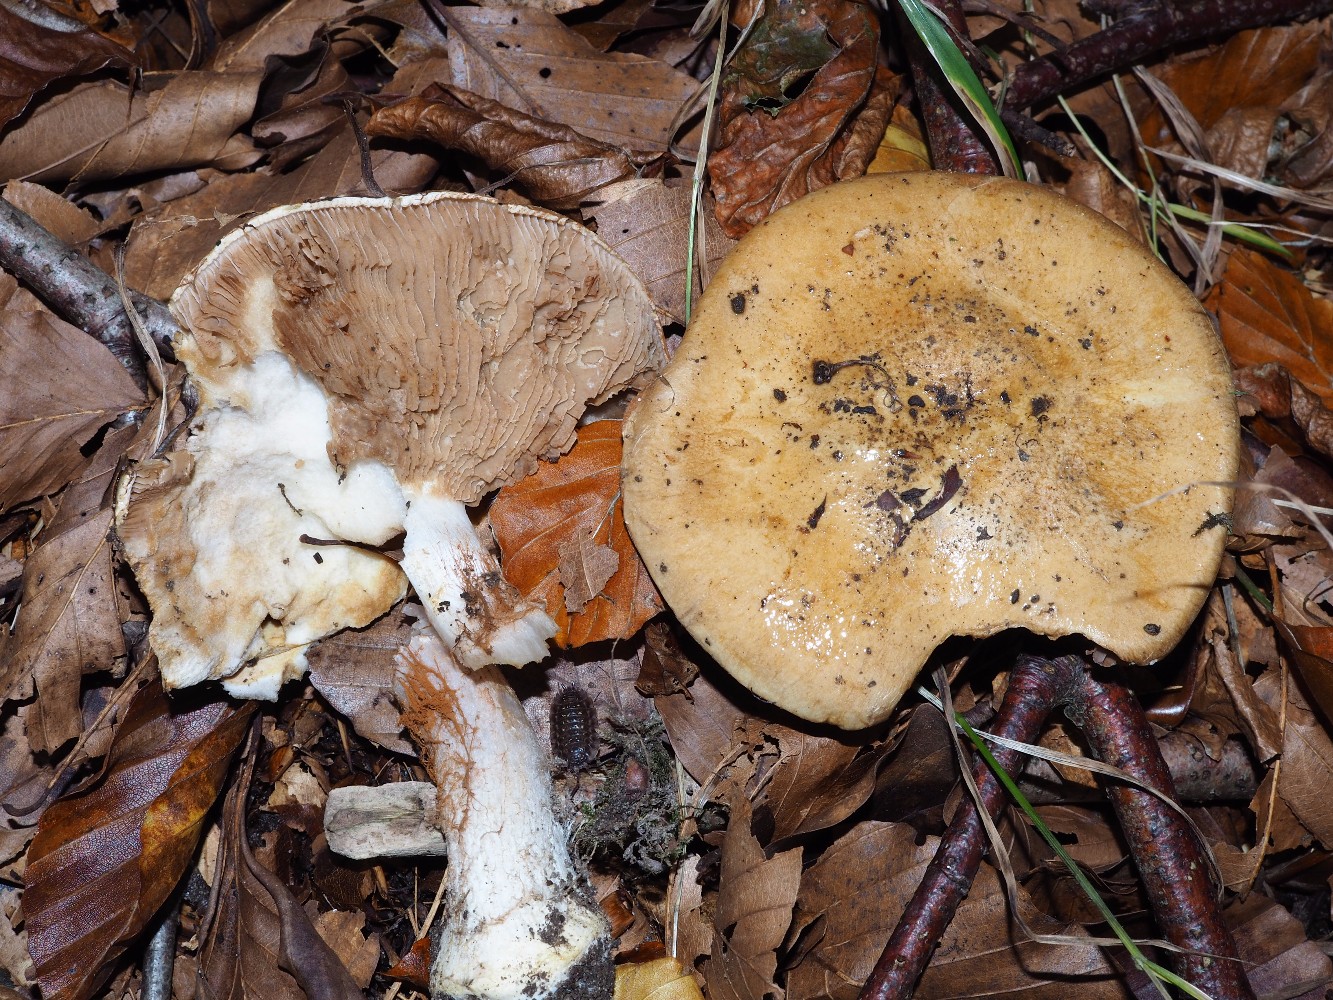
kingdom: Fungi
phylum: Basidiomycota
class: Agaricomycetes
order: Agaricales
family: Cortinariaceae
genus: Cortinarius
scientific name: Cortinarius anserinus
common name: bøge-slørhat
